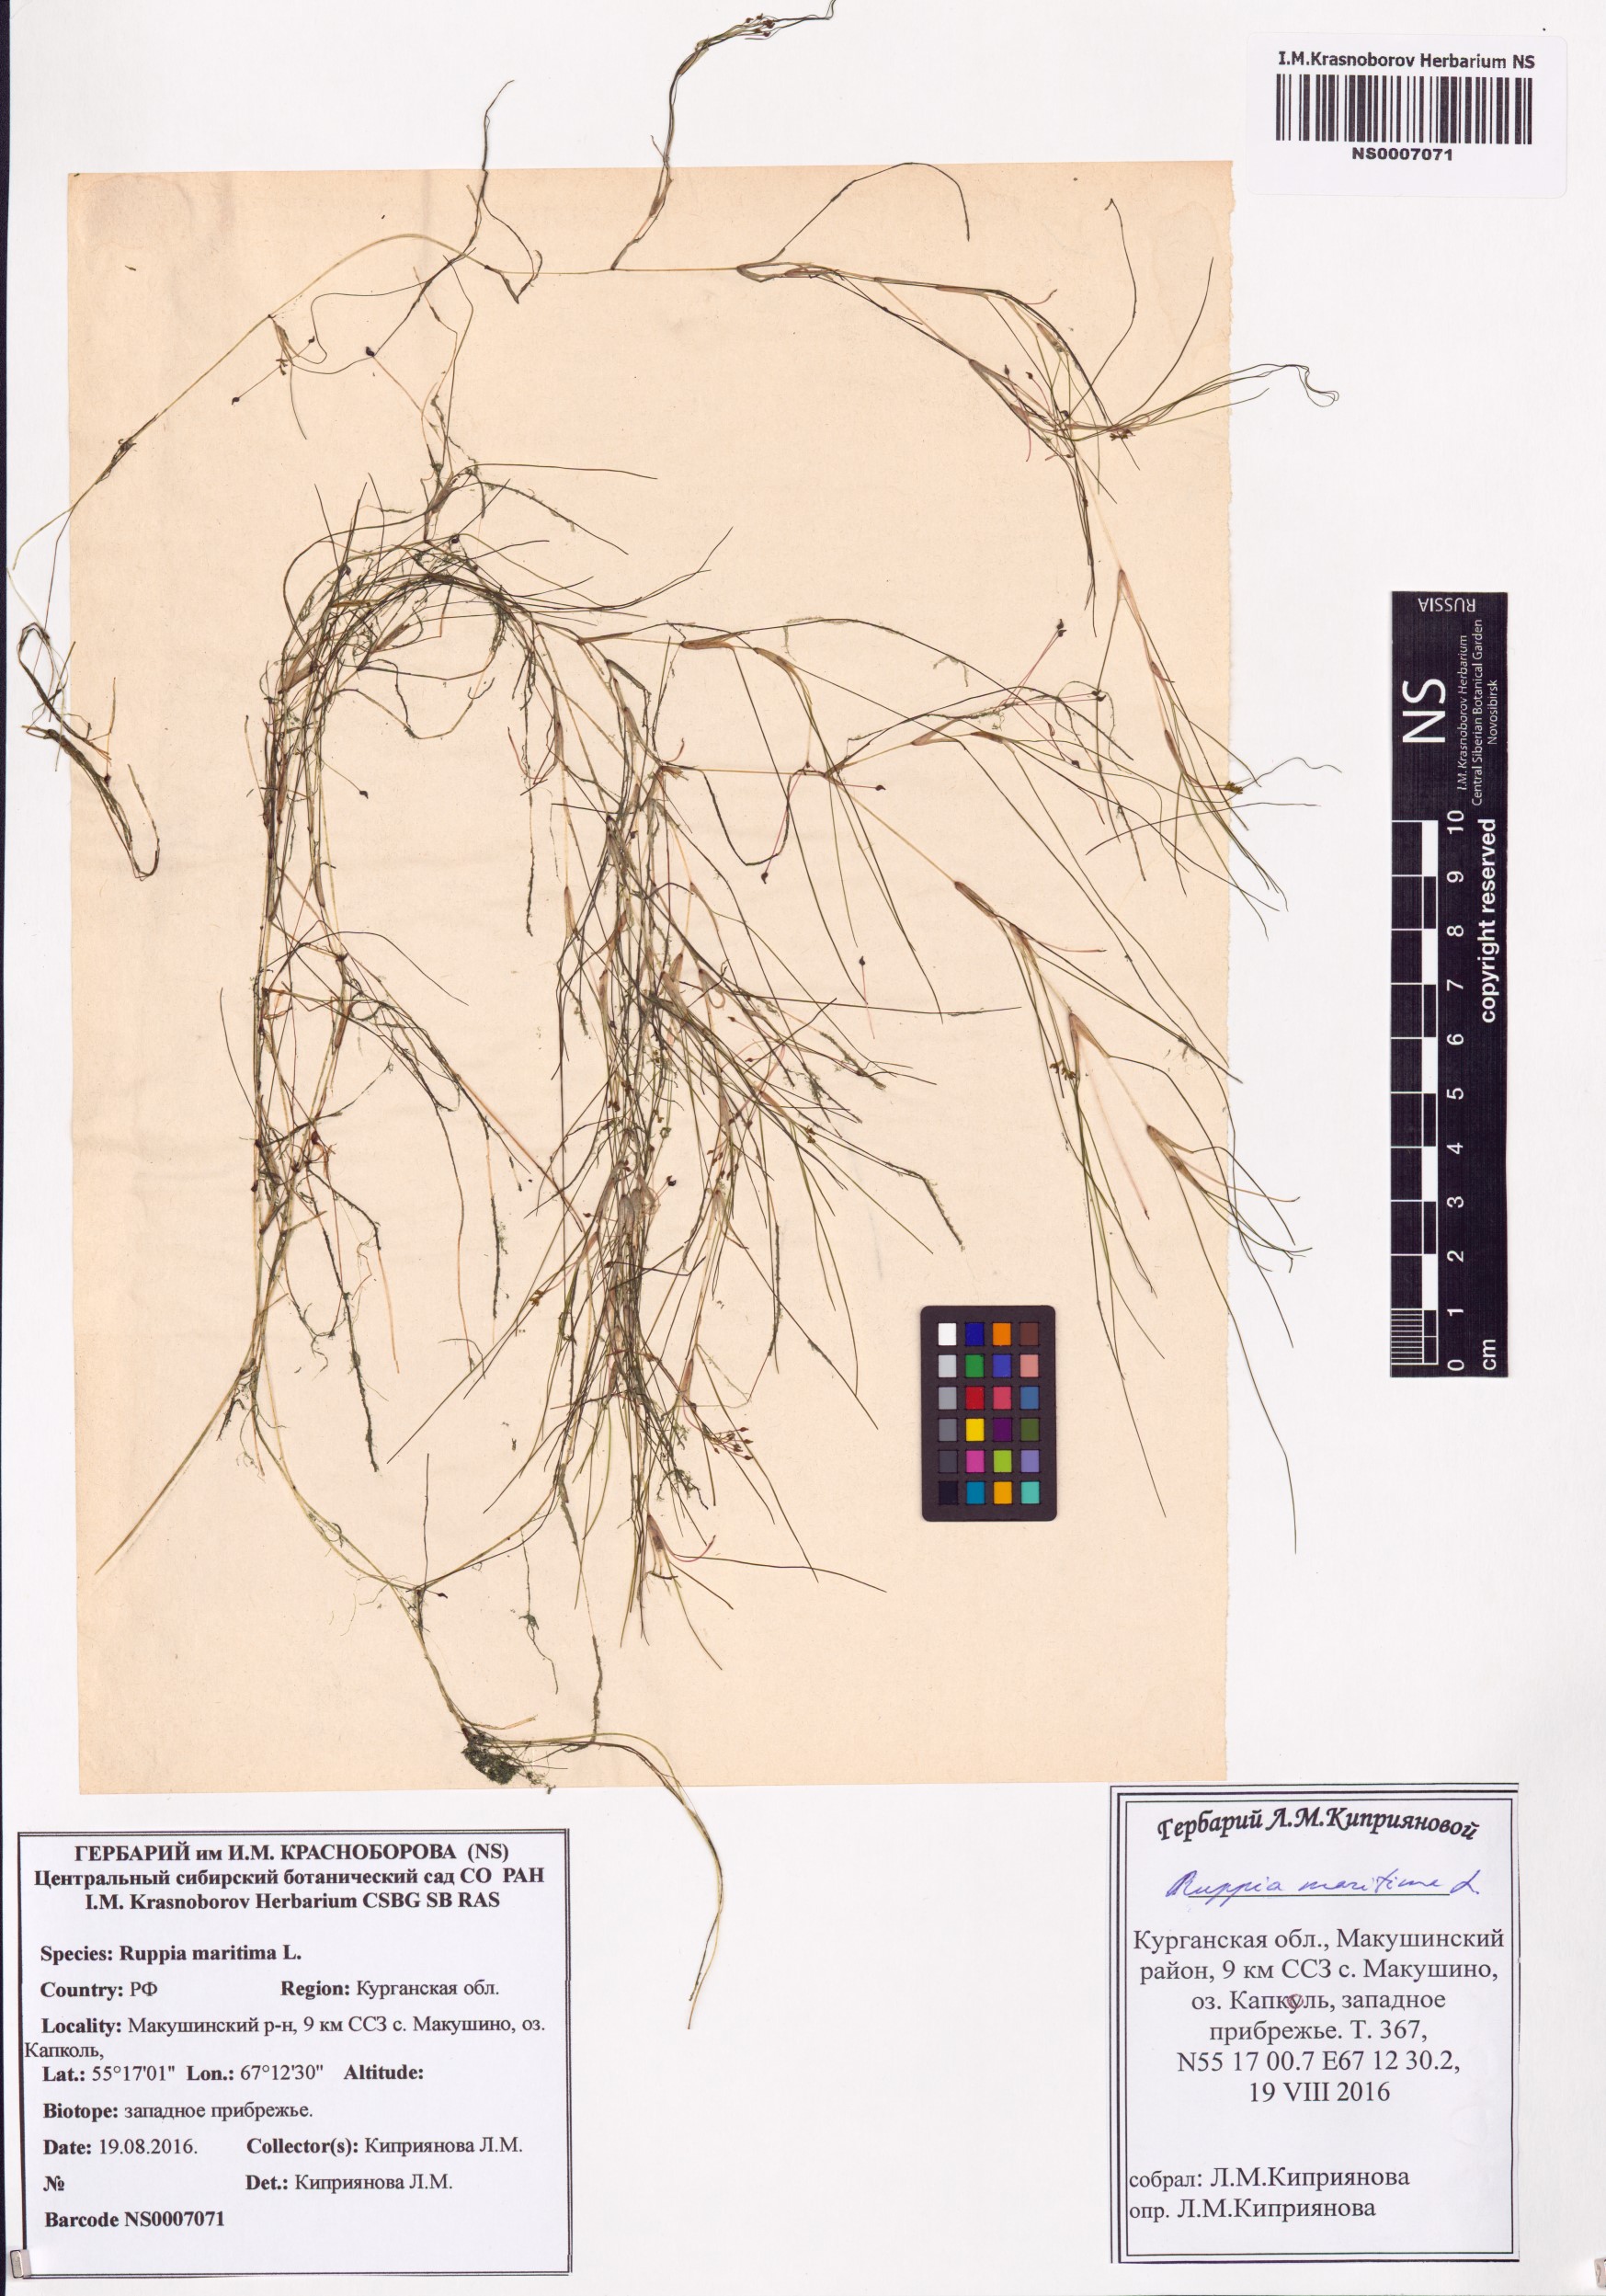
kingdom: Plantae
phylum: Tracheophyta
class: Liliopsida
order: Alismatales
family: Ruppiaceae
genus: Ruppia
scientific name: Ruppia maritima
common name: Beaked tasselweed
